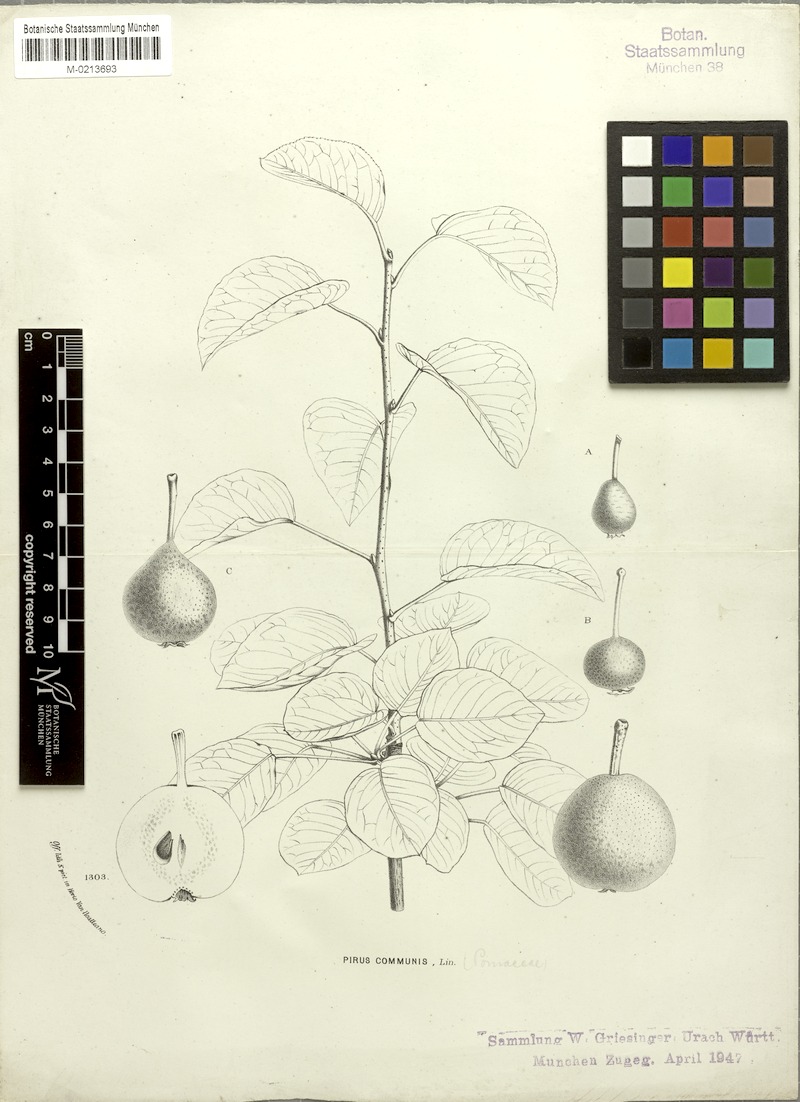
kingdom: Plantae
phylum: Tracheophyta
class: Magnoliopsida
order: Rosales
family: Rosaceae
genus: Pyrus
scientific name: Pyrus communis
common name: Pear
